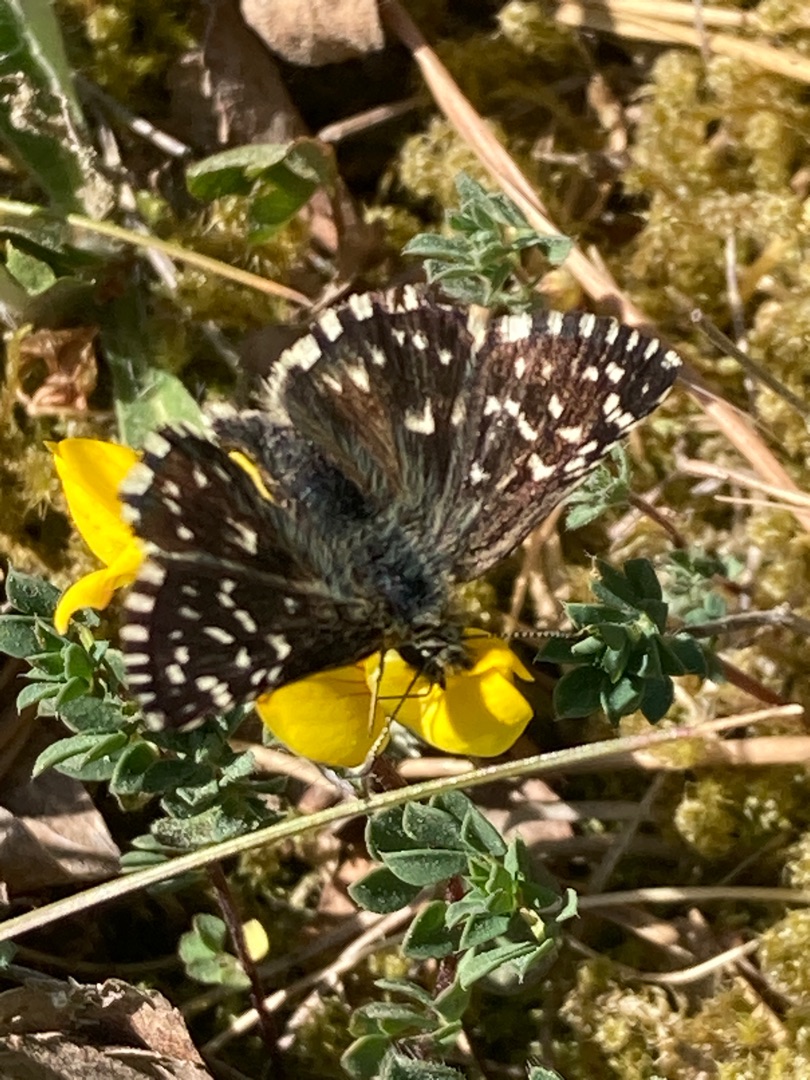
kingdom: Animalia
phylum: Arthropoda
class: Insecta
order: Lepidoptera
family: Hesperiidae
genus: Pyrgus
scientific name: Pyrgus malvae
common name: Spættet bredpande
